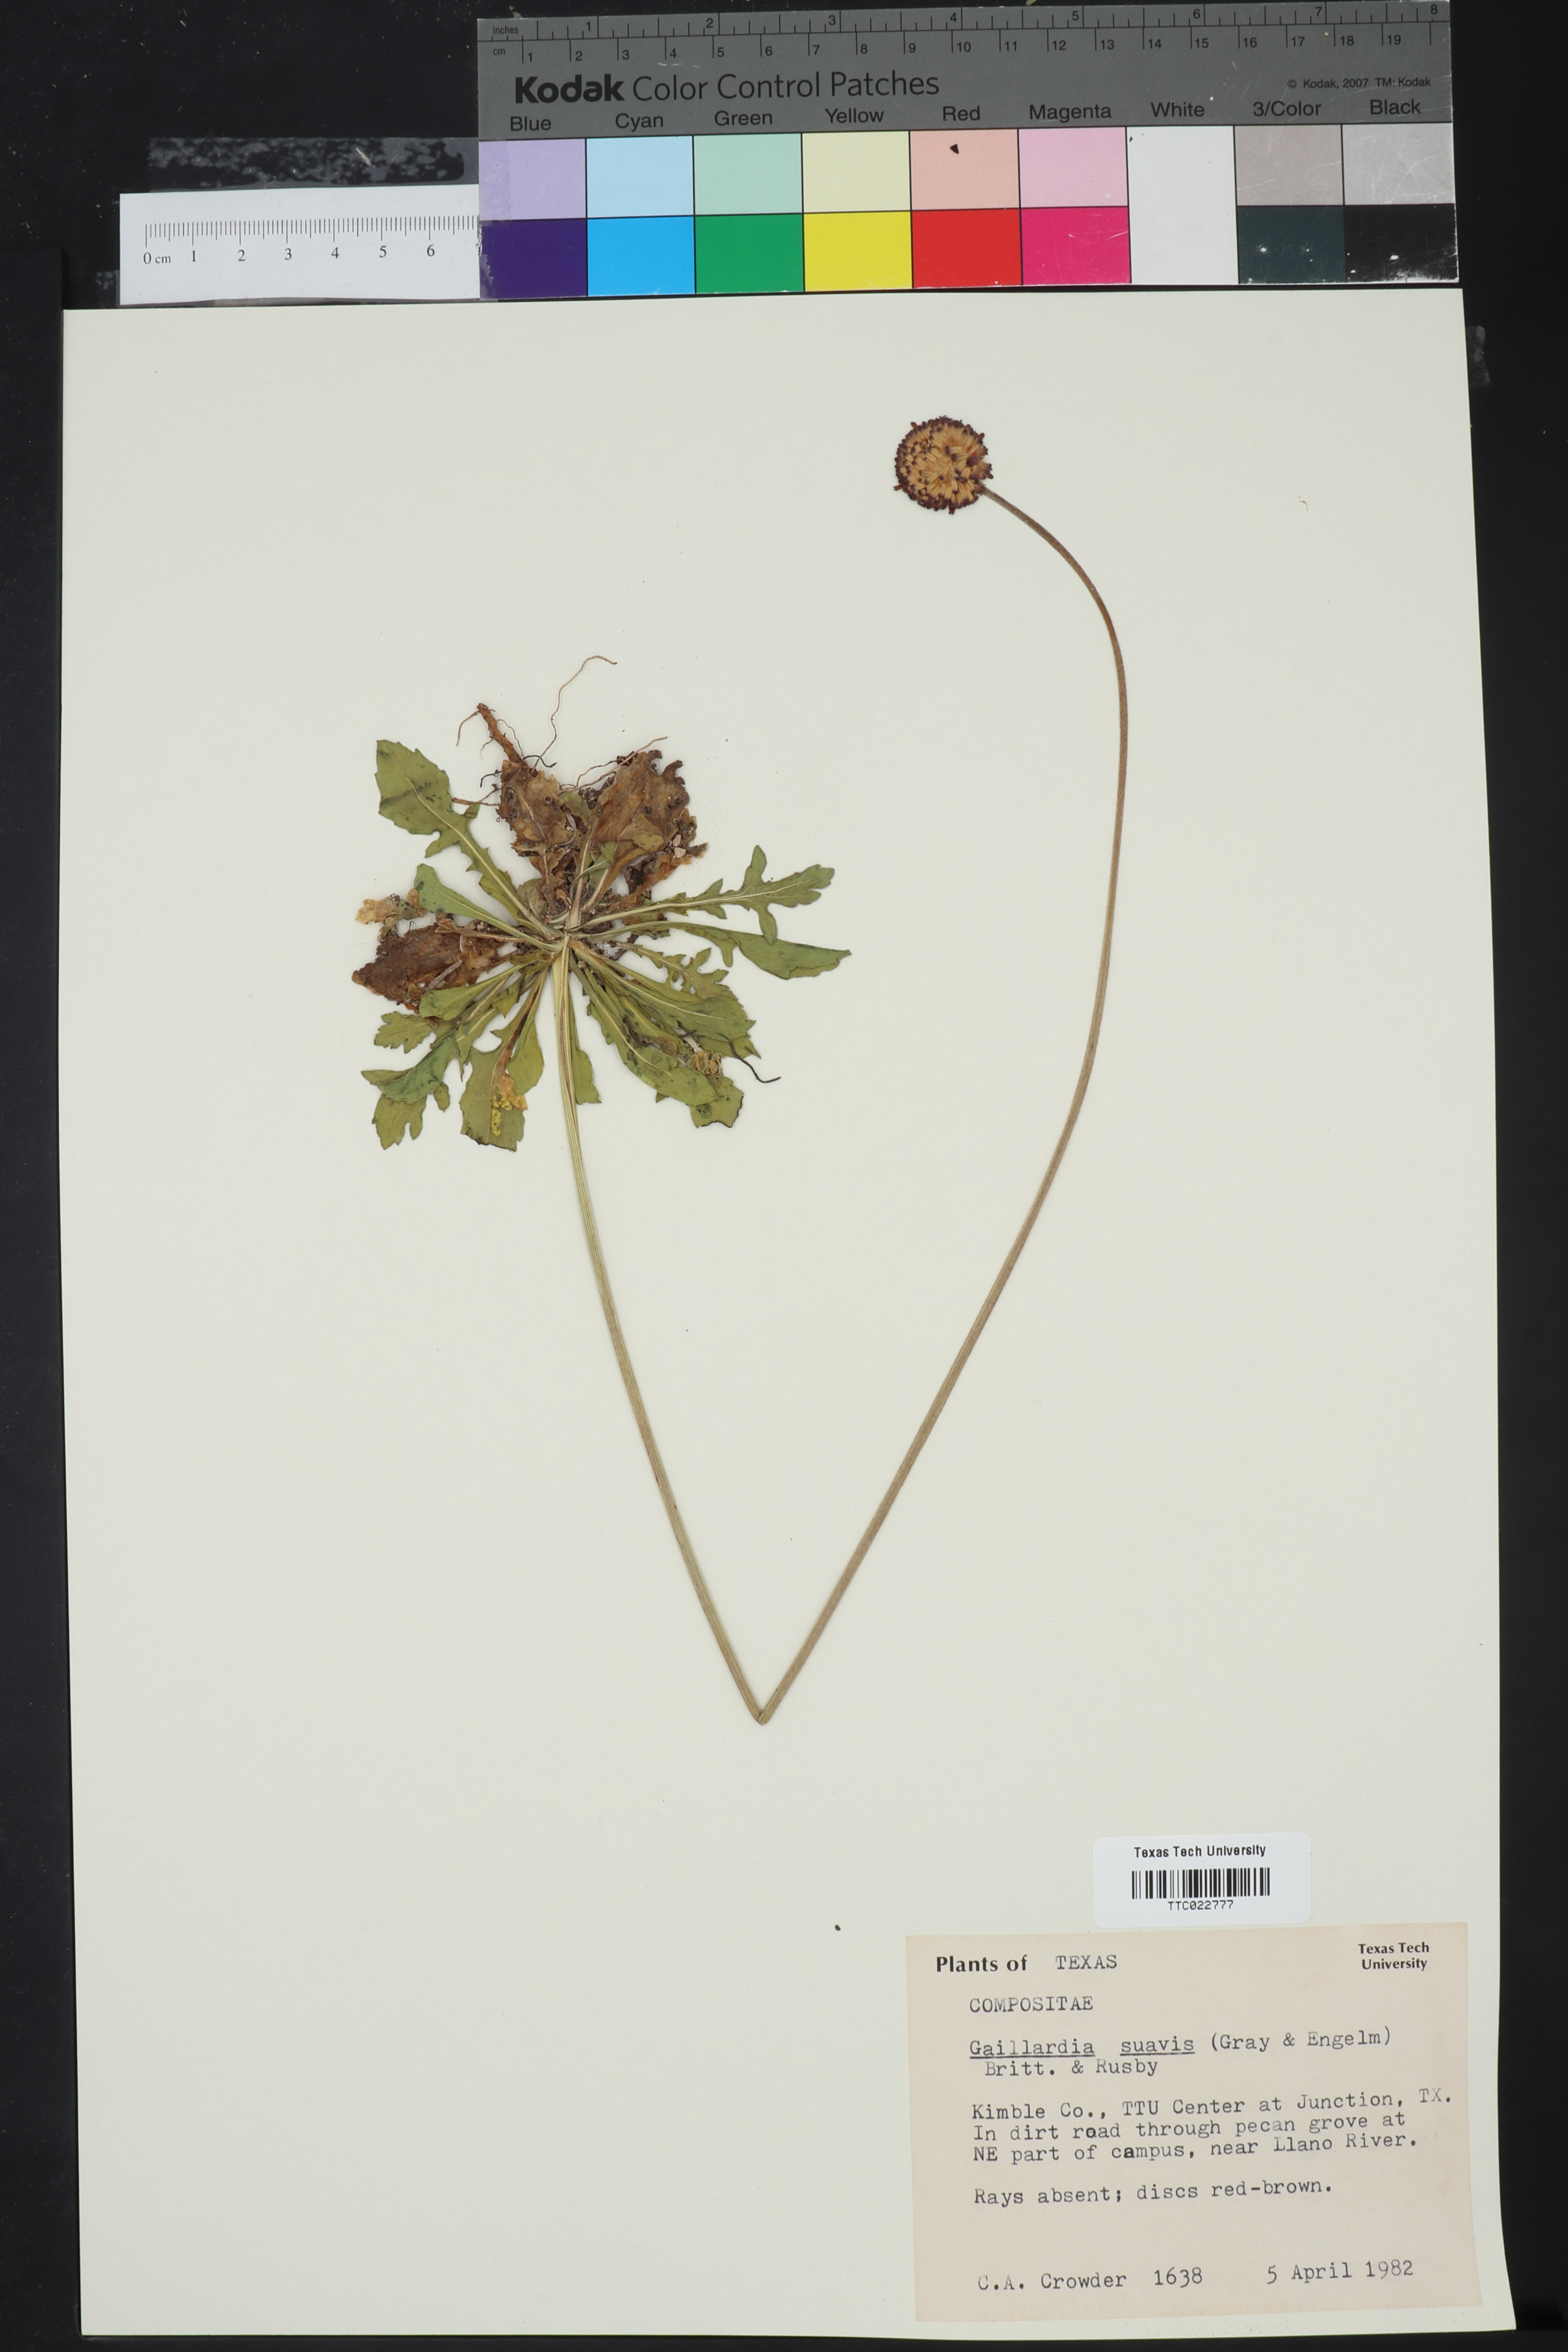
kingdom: Plantae
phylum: Tracheophyta
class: Magnoliopsida
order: Asterales
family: Asteraceae
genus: Gaillardia
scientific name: Gaillardia suavis
